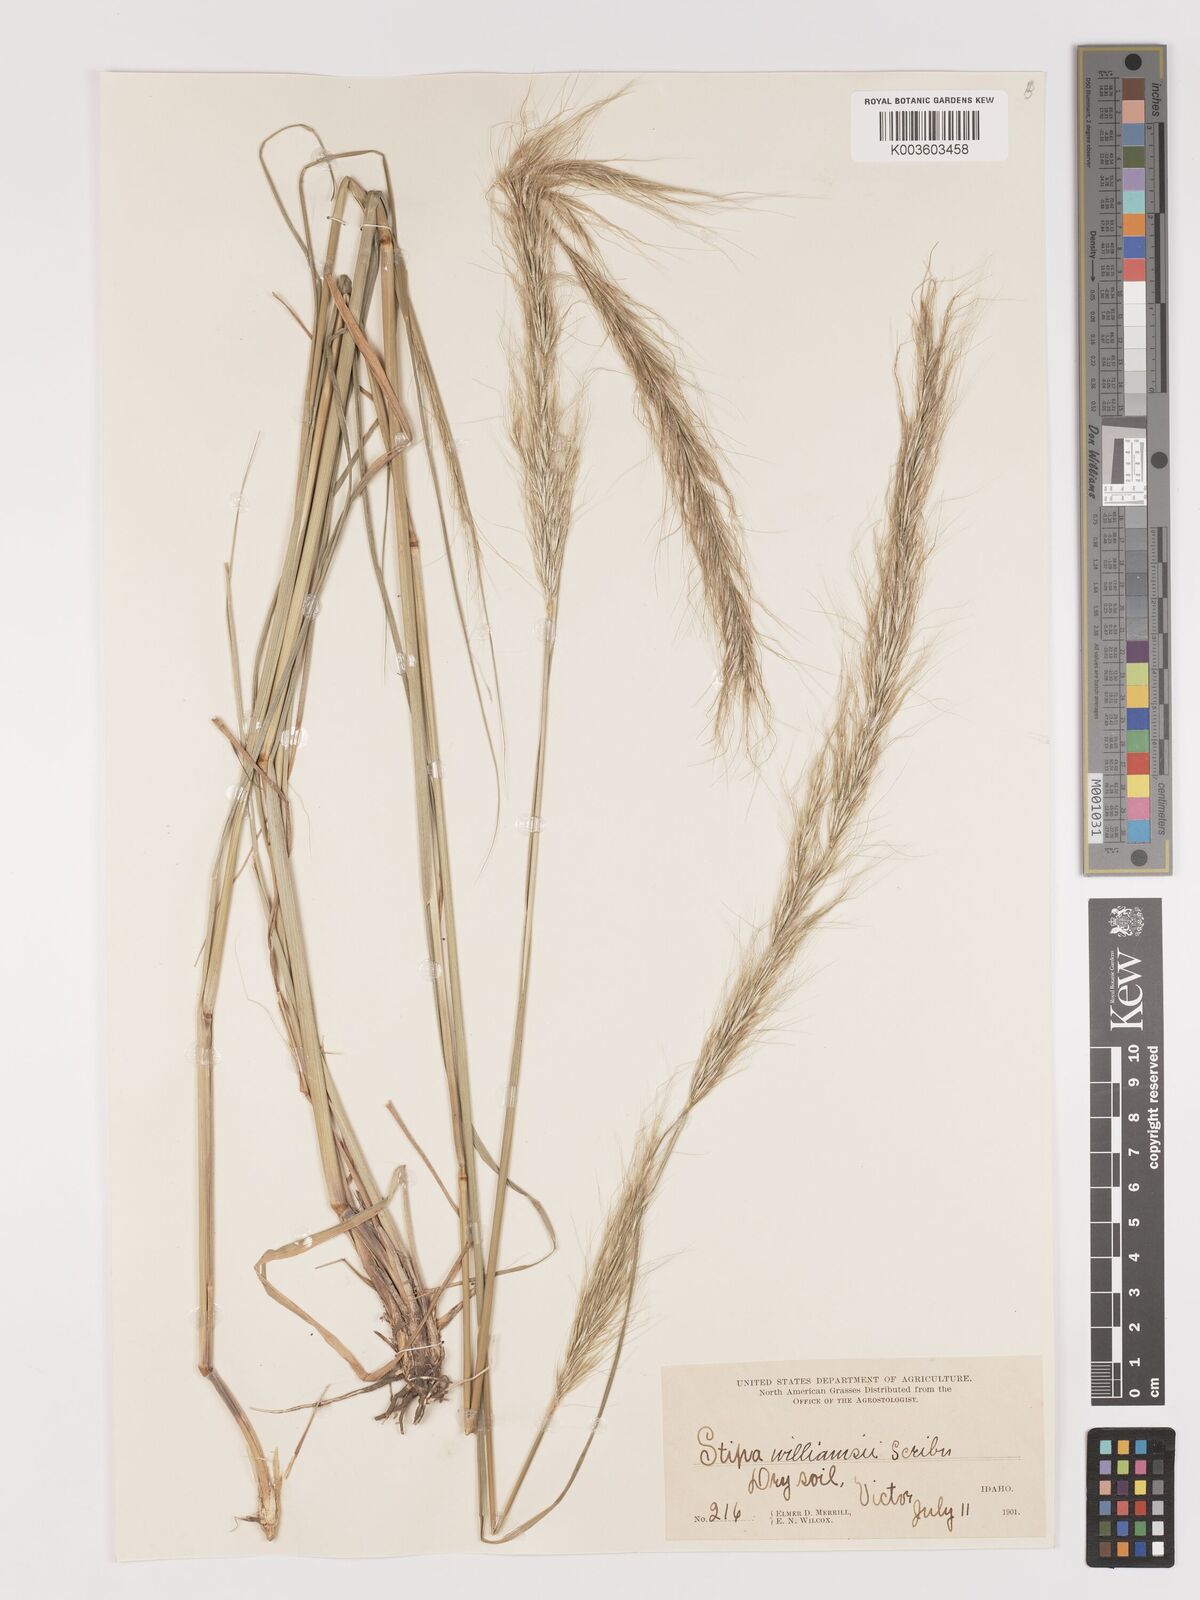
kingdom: Plantae
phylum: Tracheophyta
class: Liliopsida
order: Poales
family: Poaceae
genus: Eriocoma
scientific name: Eriocoma nelsonii
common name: Nelson's needlegrass
